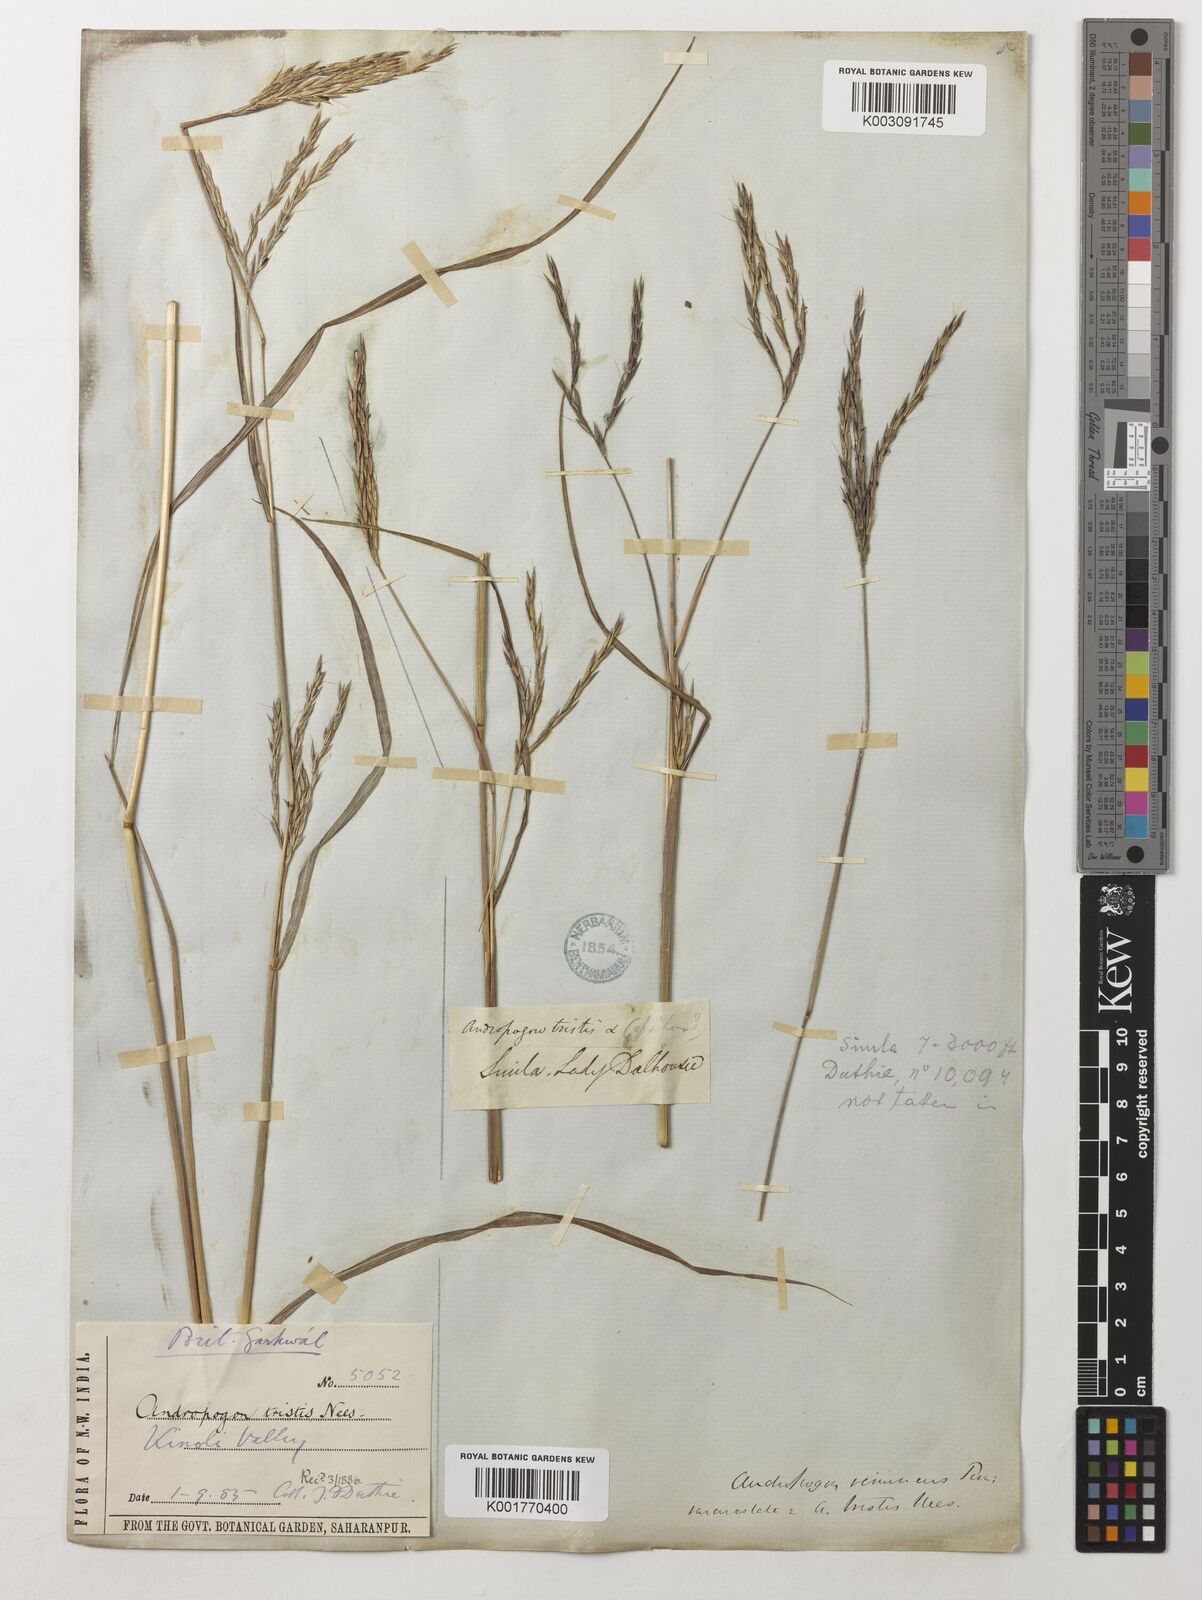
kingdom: Plantae
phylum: Tracheophyta
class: Liliopsida
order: Poales
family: Poaceae
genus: Andropogon
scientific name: Andropogon munroi
